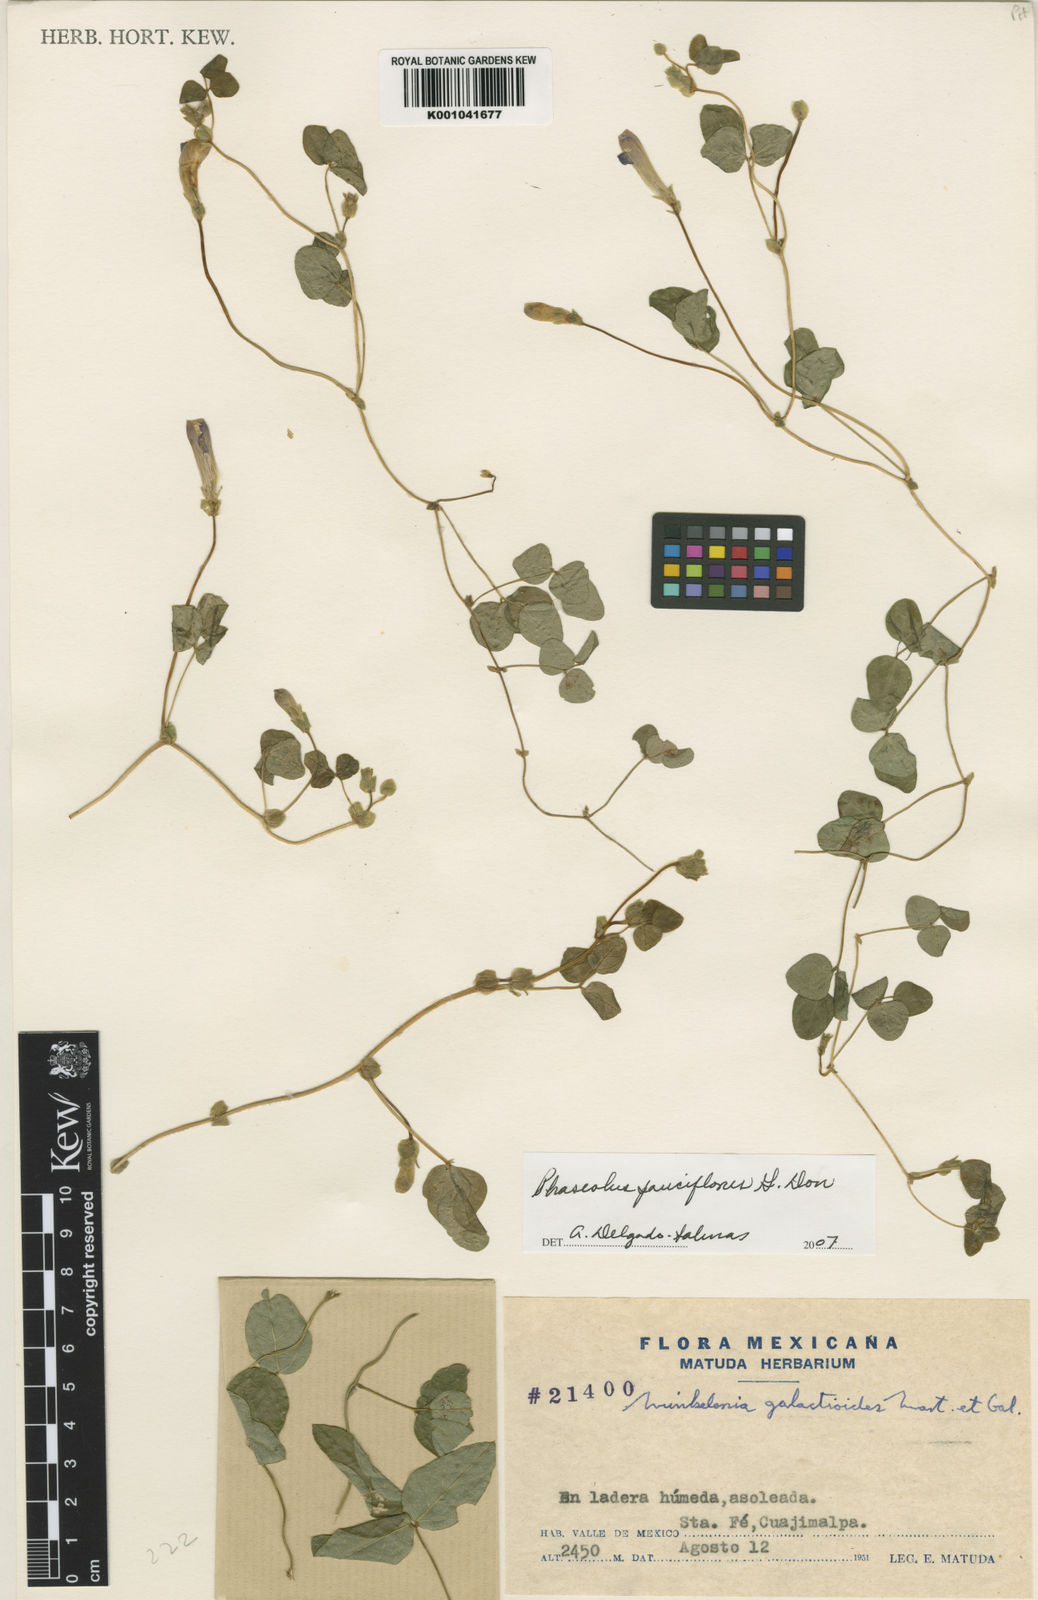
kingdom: Plantae
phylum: Tracheophyta
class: Magnoliopsida
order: Fabales
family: Fabaceae
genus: Phaseolus
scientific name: Phaseolus
